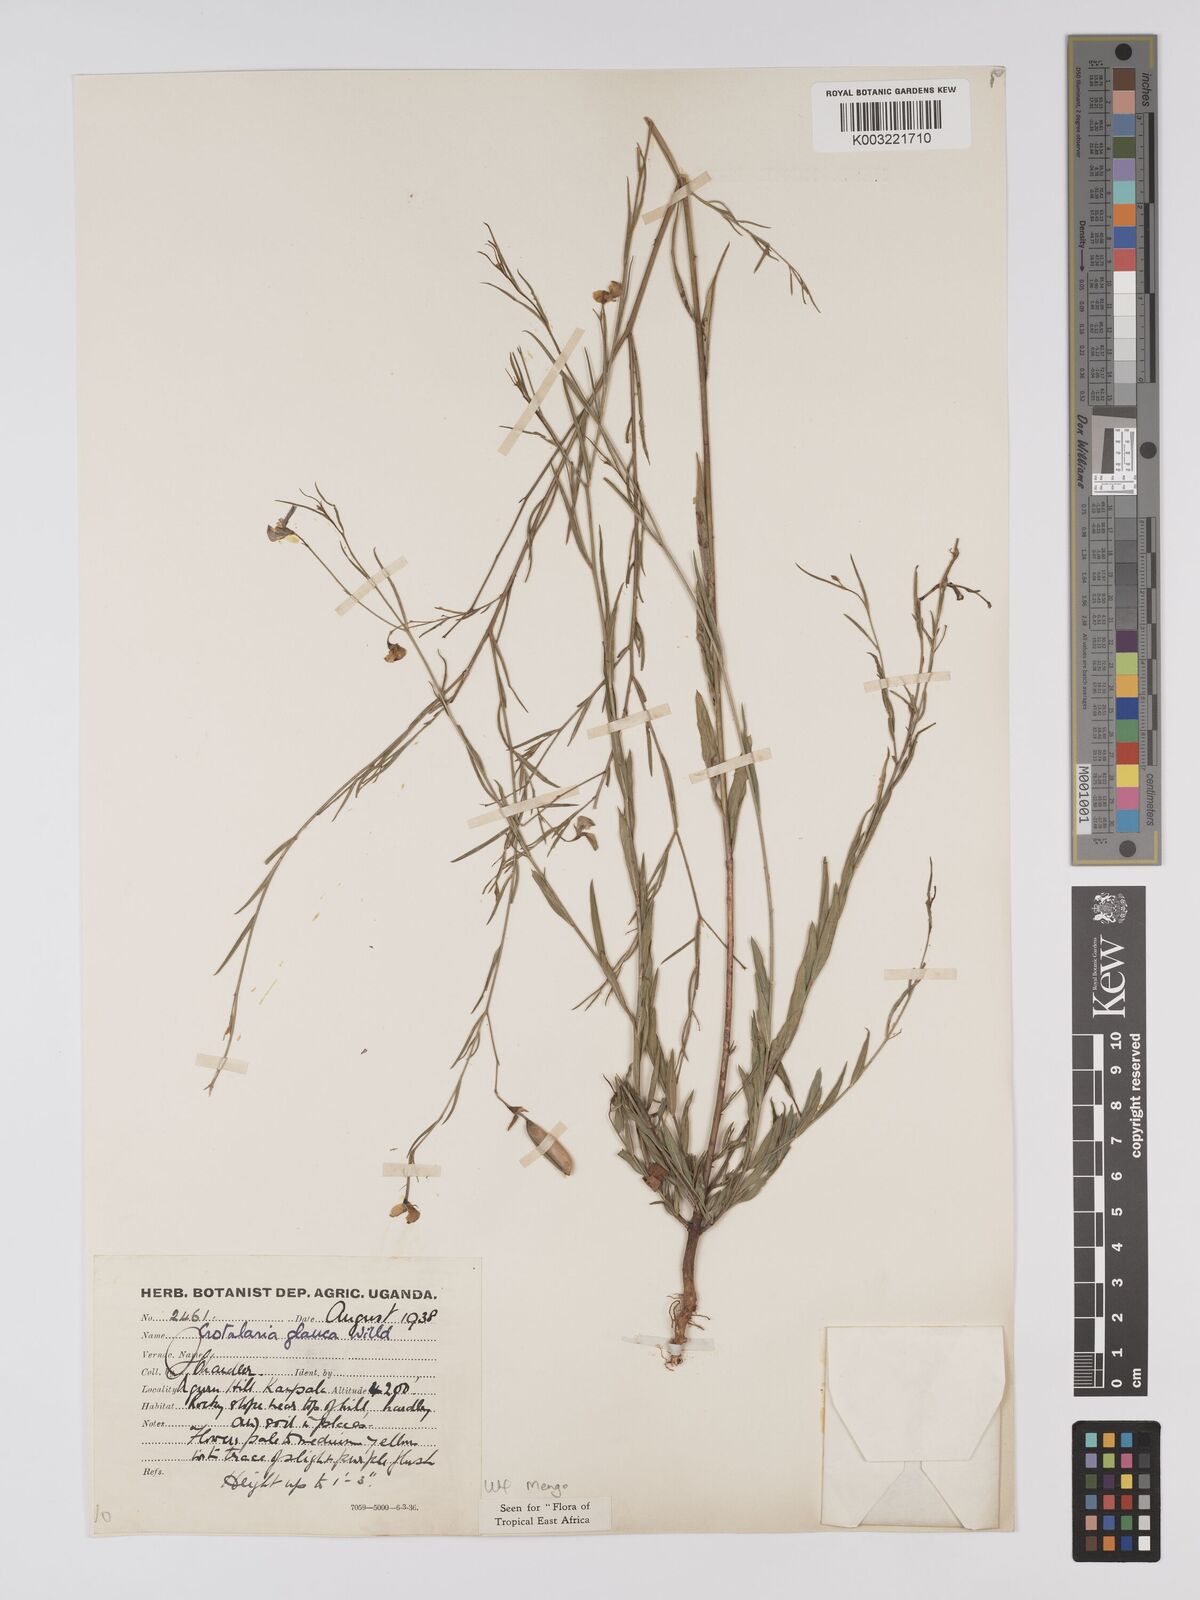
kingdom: Plantae
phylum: Tracheophyta
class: Magnoliopsida
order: Fabales
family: Fabaceae
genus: Crotalaria
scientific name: Crotalaria glauca
